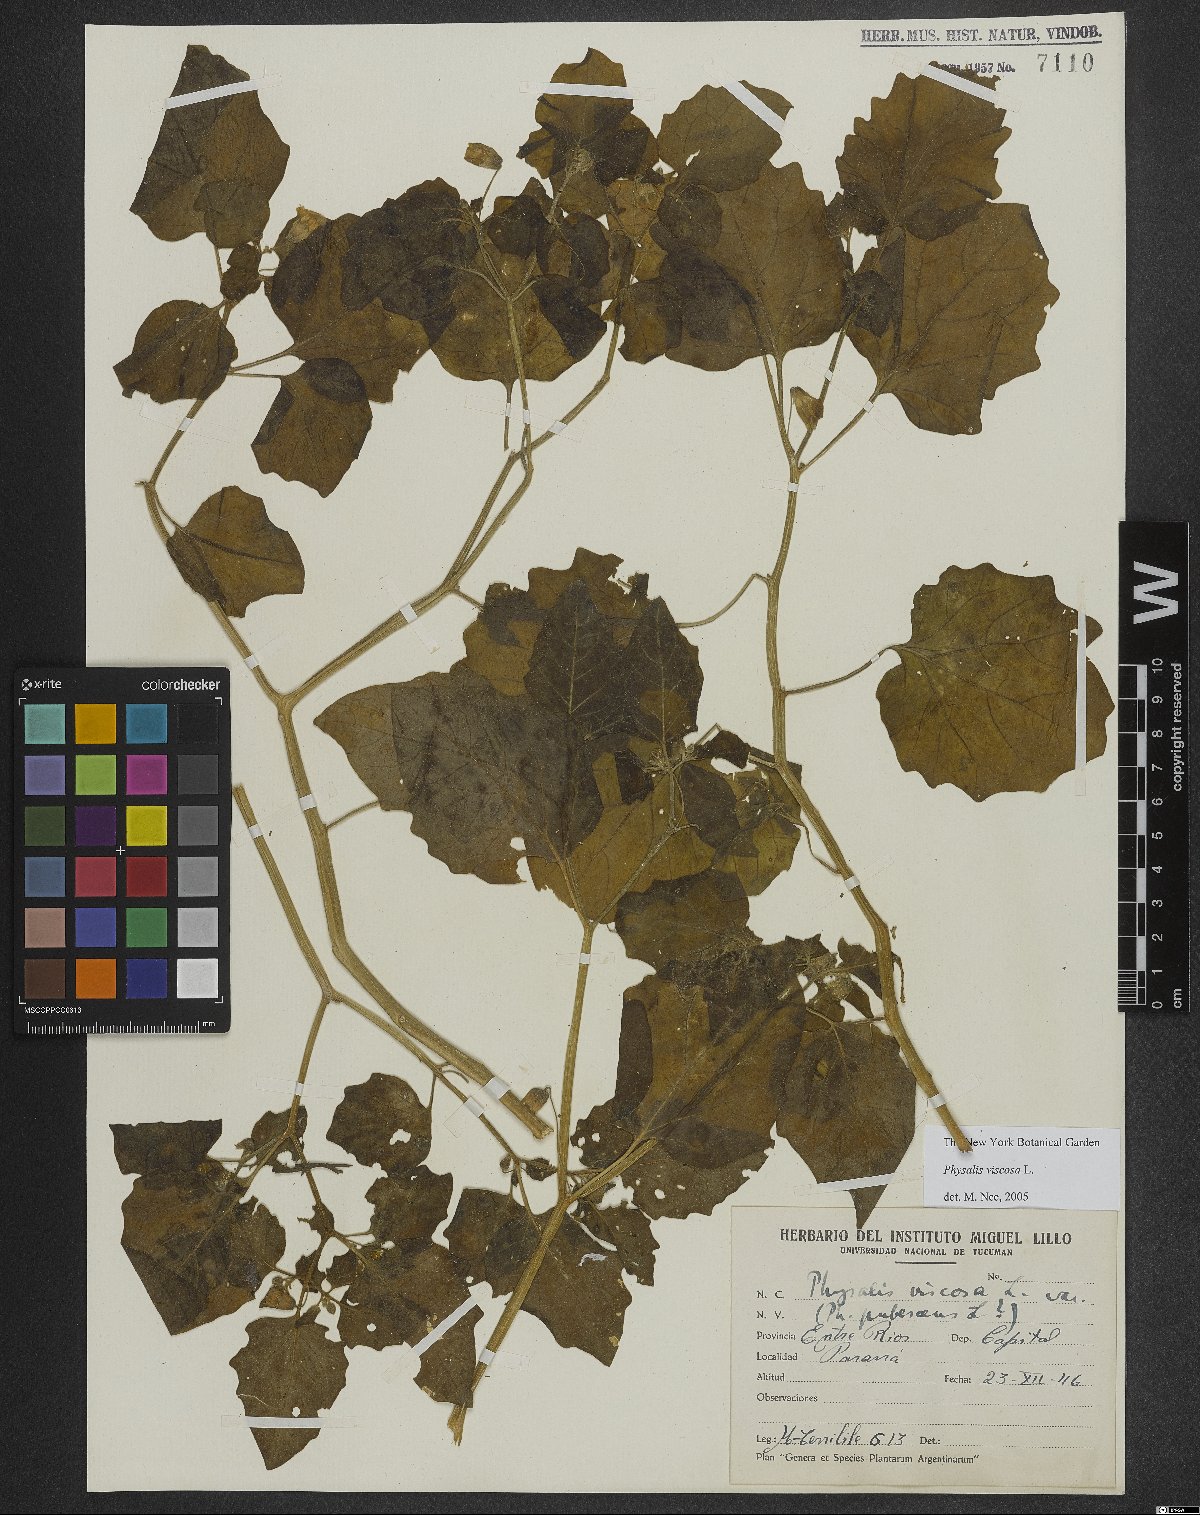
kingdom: Plantae
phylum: Tracheophyta
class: Magnoliopsida
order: Solanales
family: Solanaceae
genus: Physalis
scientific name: Physalis viscosa
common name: Stellate ground-cherry
